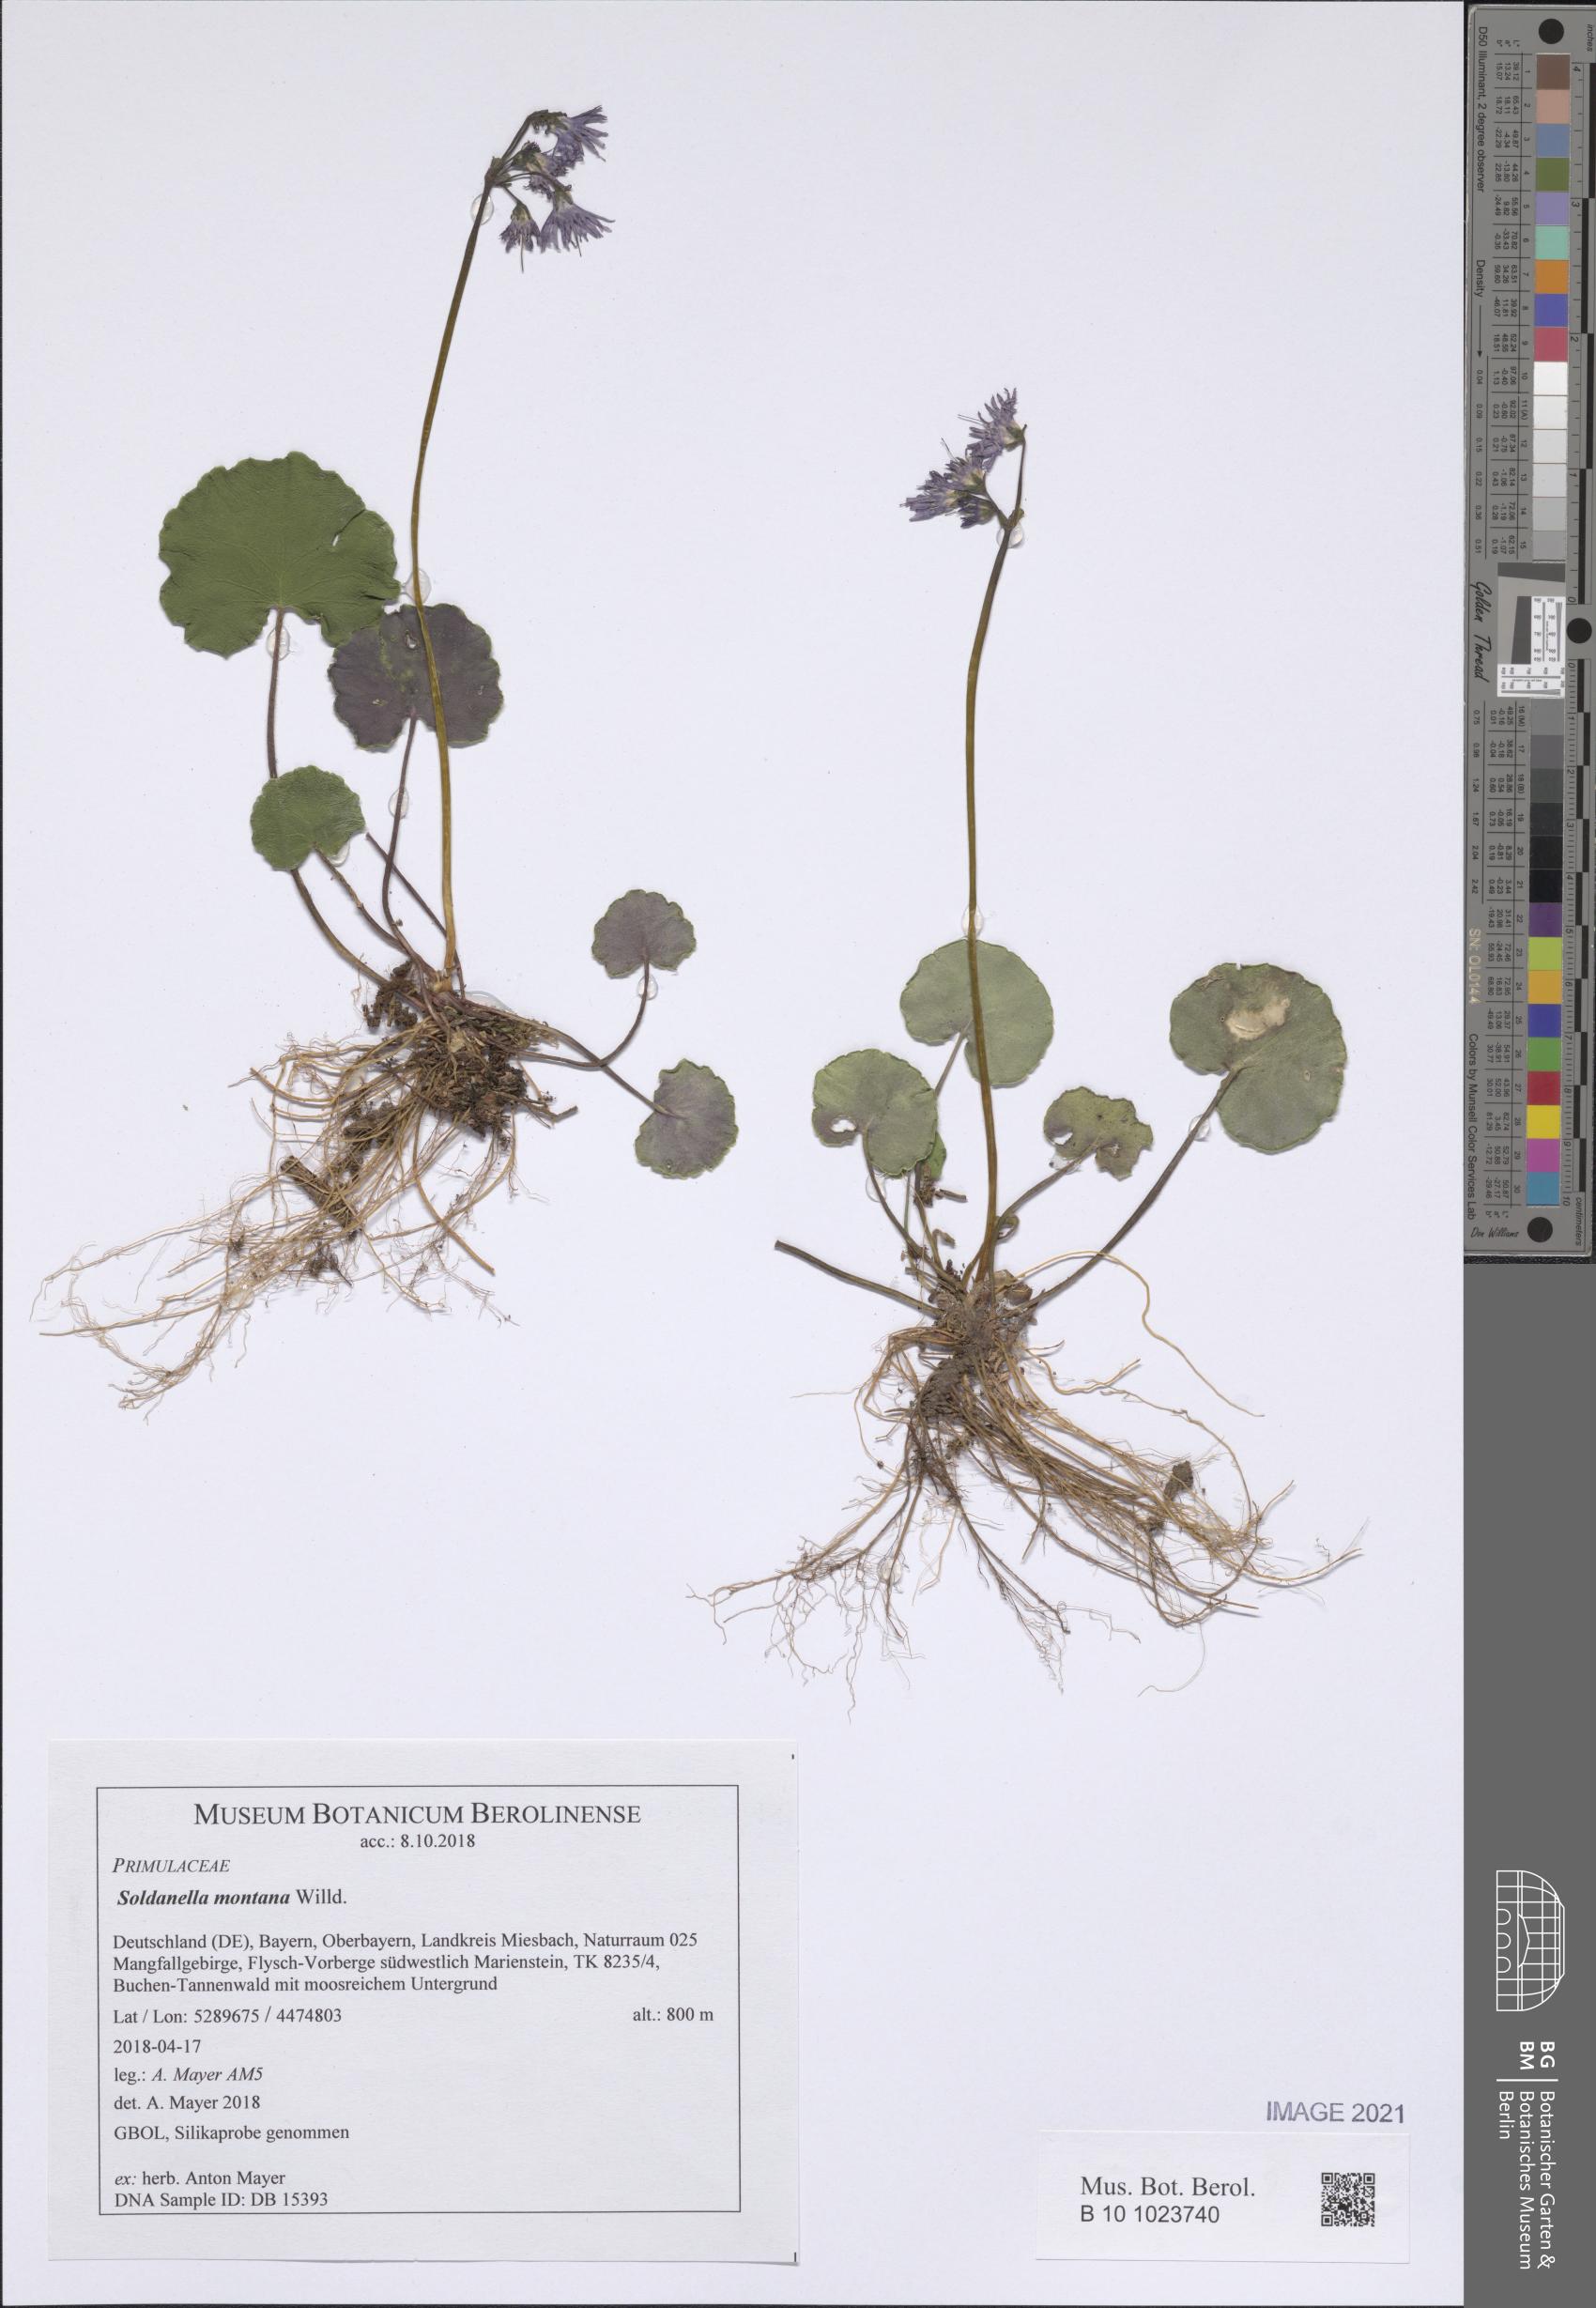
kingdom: Plantae
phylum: Tracheophyta
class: Magnoliopsida
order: Ericales
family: Primulaceae
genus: Soldanella
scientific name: Soldanella montana
